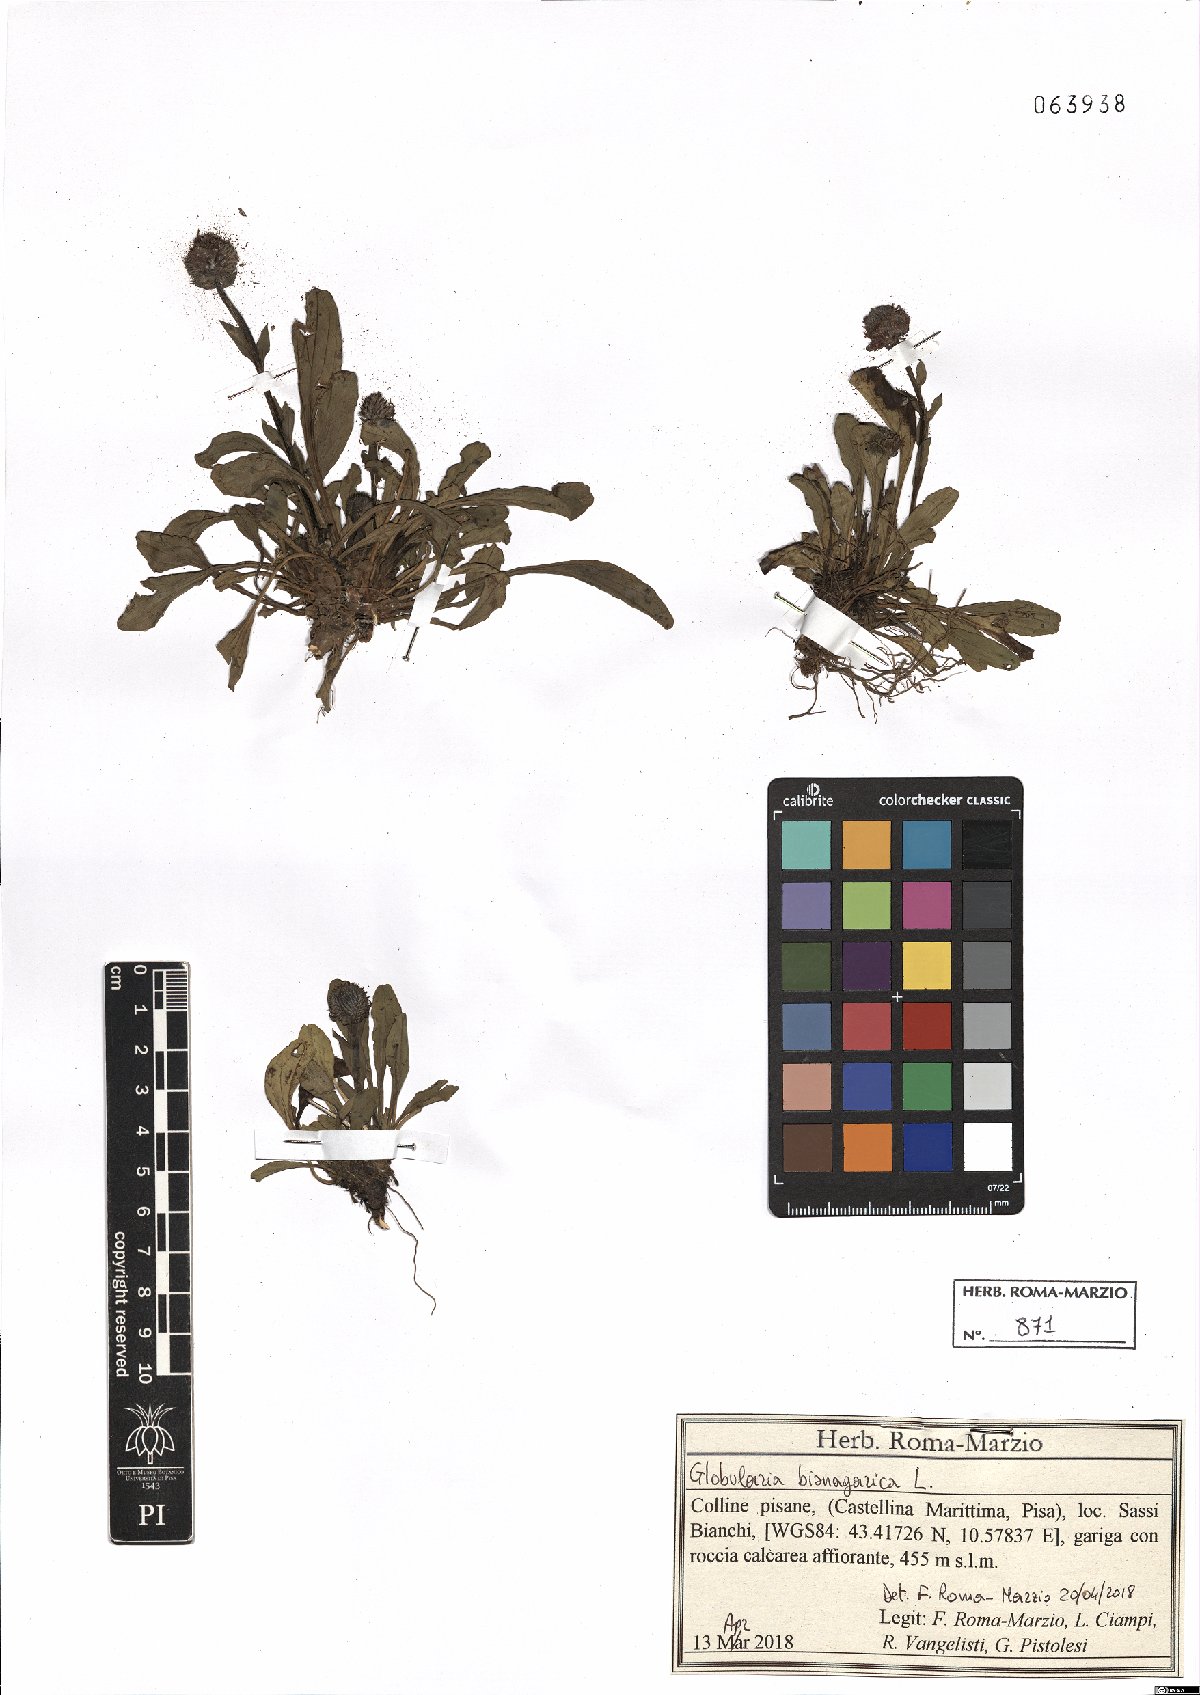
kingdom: Plantae
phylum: Tracheophyta
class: Magnoliopsida
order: Lamiales
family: Plantaginaceae
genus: Globularia
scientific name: Globularia bisnagarica
